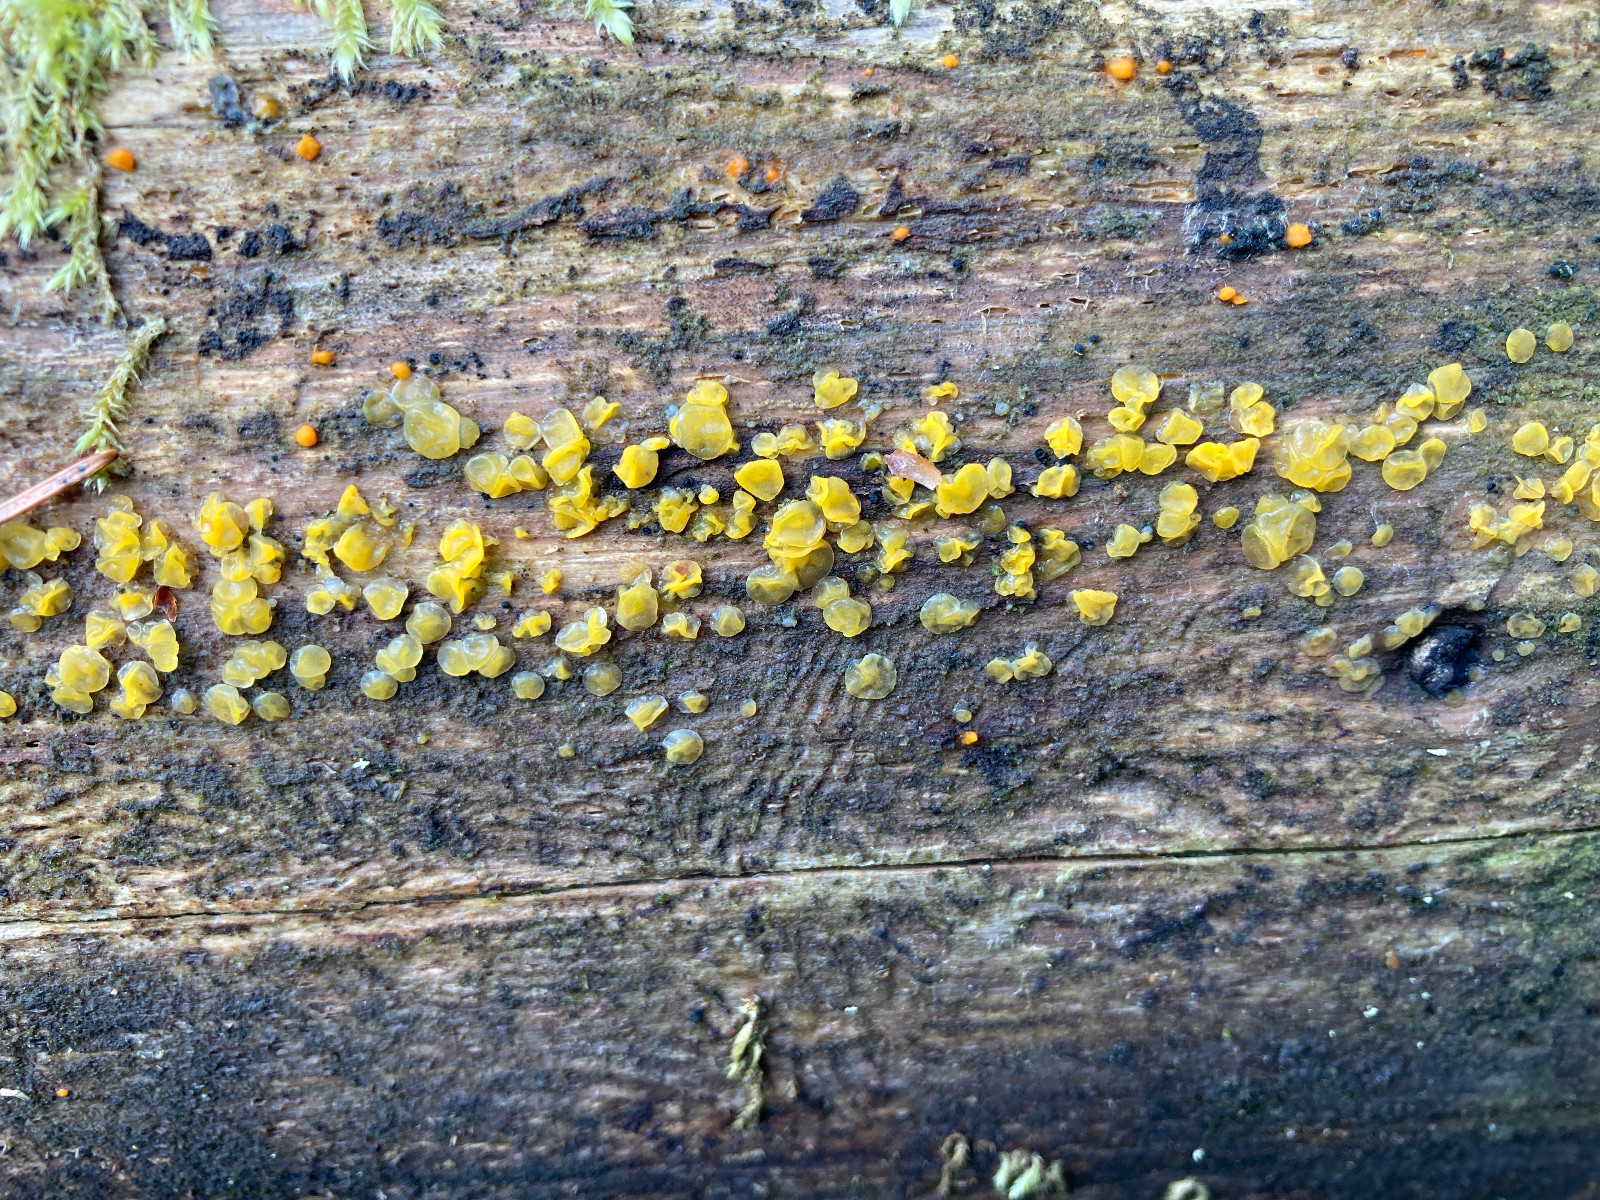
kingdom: Fungi
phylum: Basidiomycota
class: Dacrymycetes
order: Dacrymycetales
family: Dacrymycetaceae
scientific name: Dacrymycetaceae
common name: tåresvampfamilien
